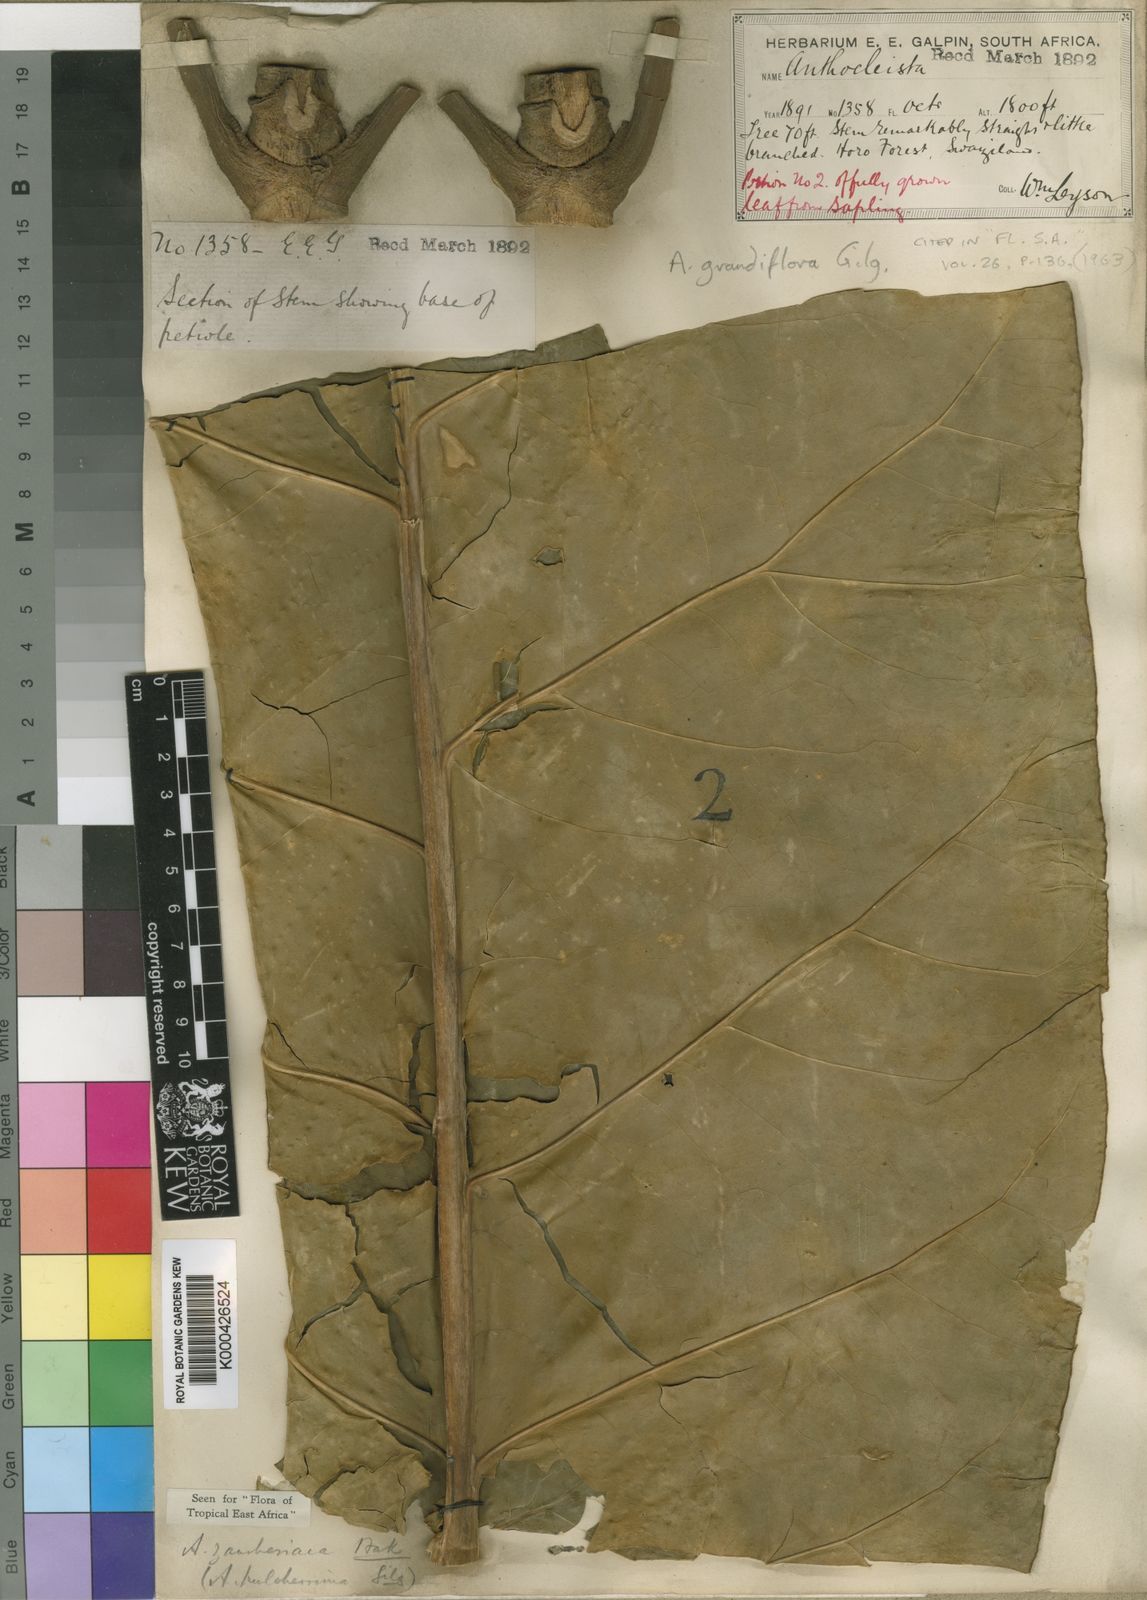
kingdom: Plantae
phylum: Tracheophyta
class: Magnoliopsida
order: Gentianales
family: Gentianaceae
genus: Anthocleista
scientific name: Anthocleista grandiflora
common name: Forest big-leaf
